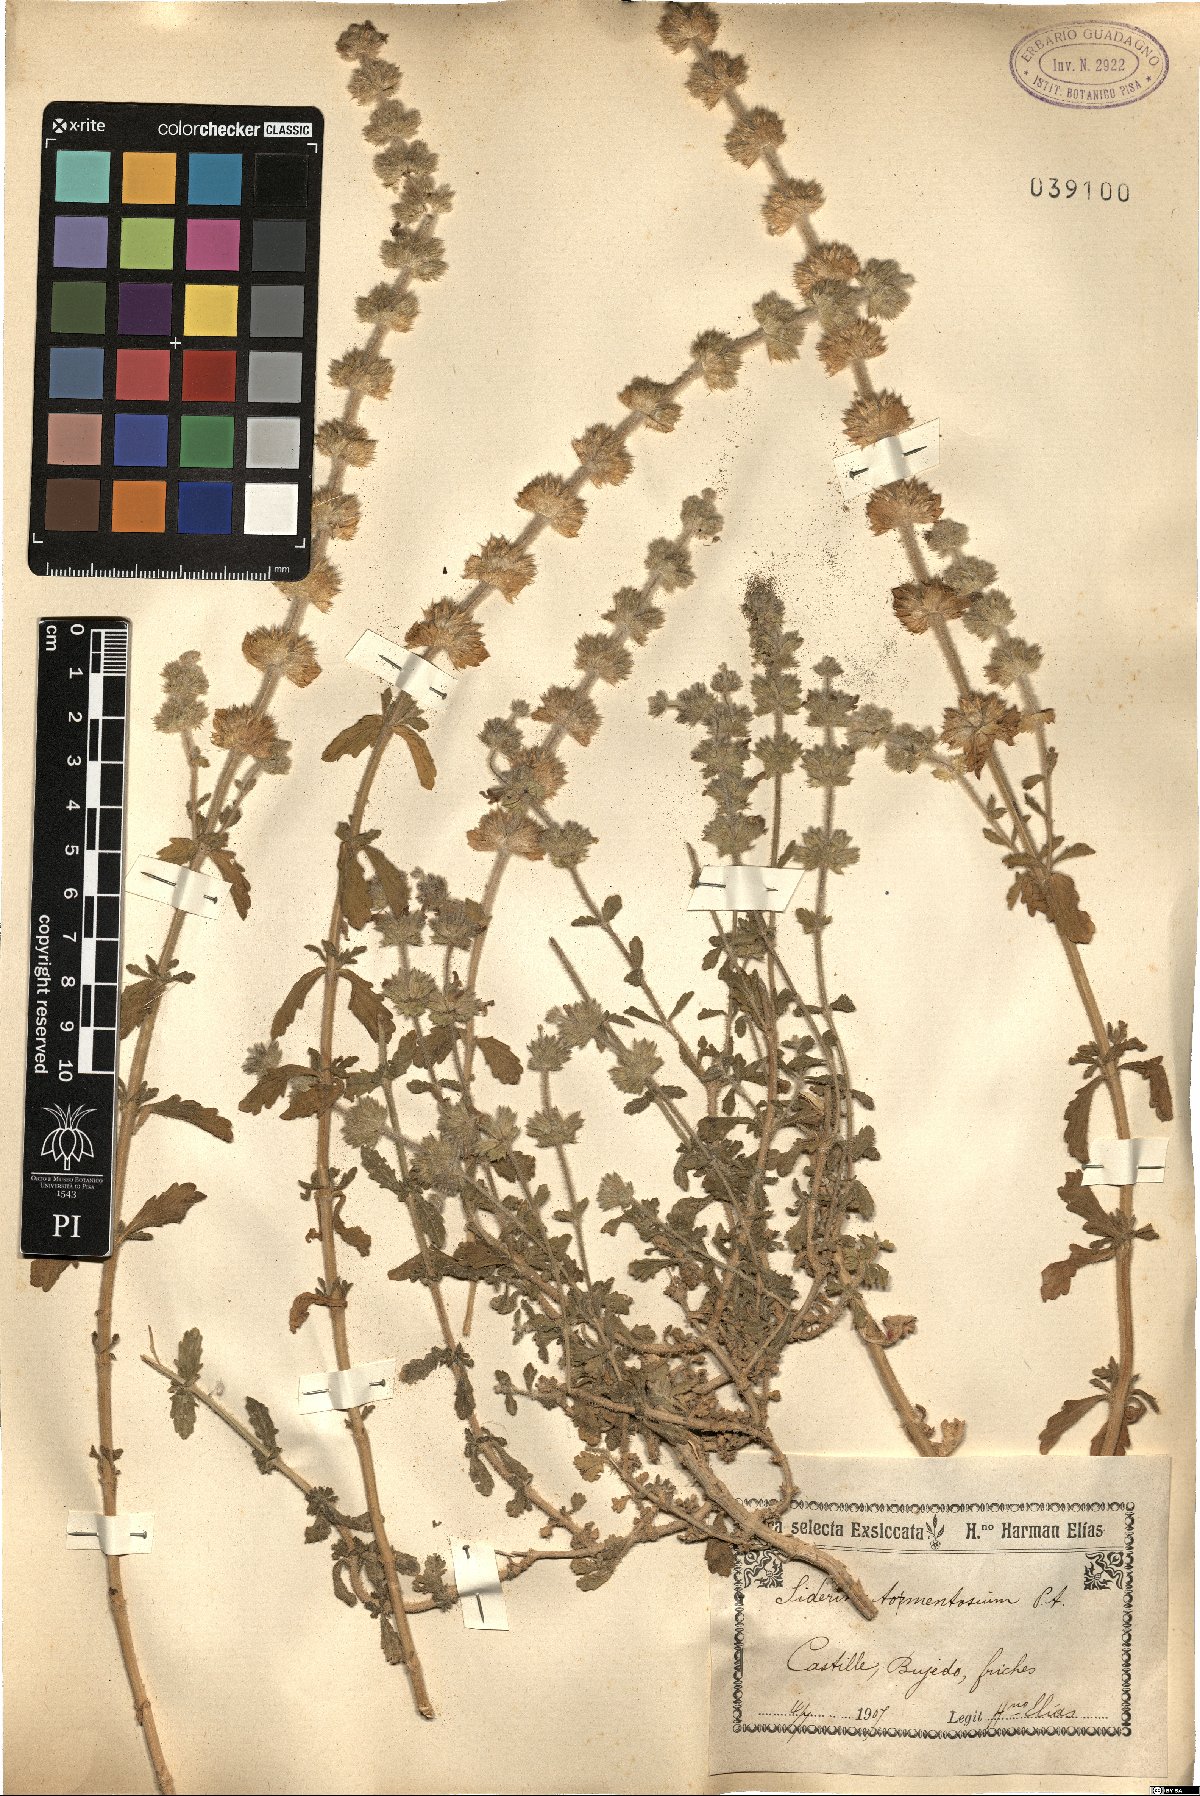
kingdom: Plantae
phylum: Tracheophyta
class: Magnoliopsida
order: Lamiales
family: Lamiaceae
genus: Sideritis
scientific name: Sideritis hirsuta
